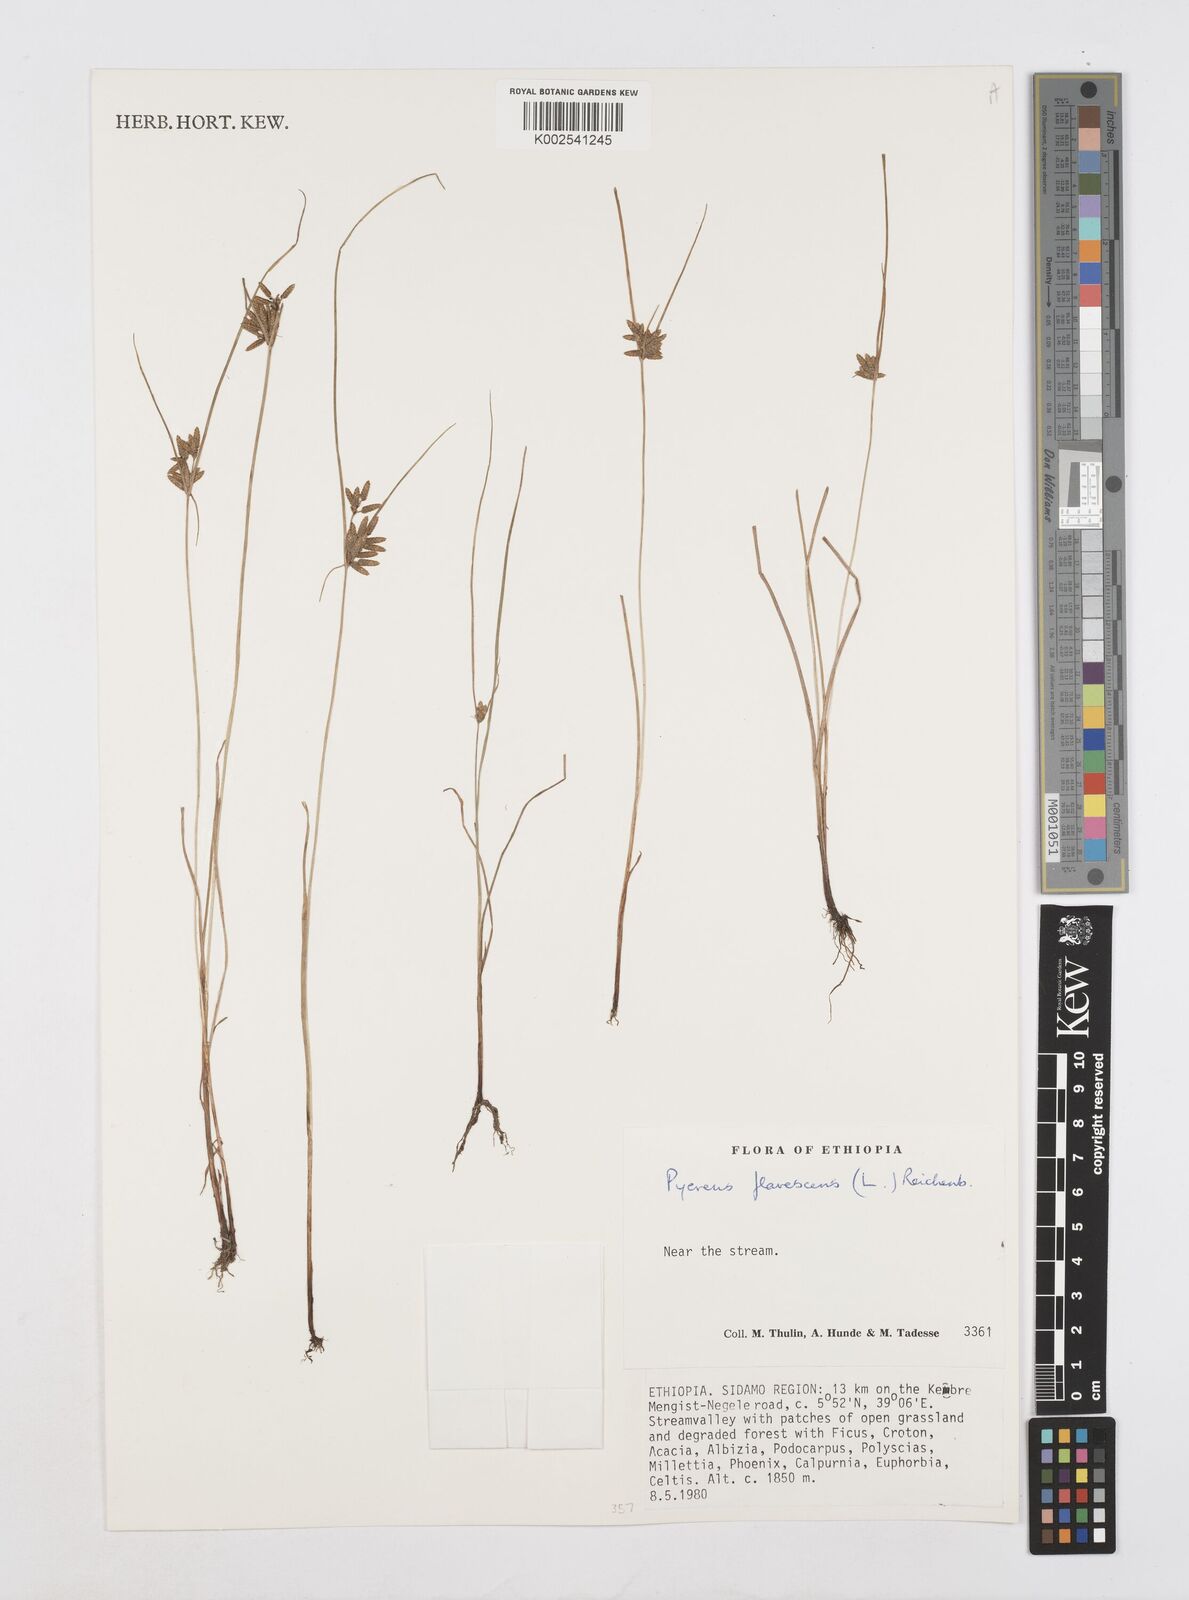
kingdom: Plantae
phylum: Tracheophyta
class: Liliopsida
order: Poales
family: Cyperaceae
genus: Cyperus
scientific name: Cyperus flavescens
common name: Yellow galingale
